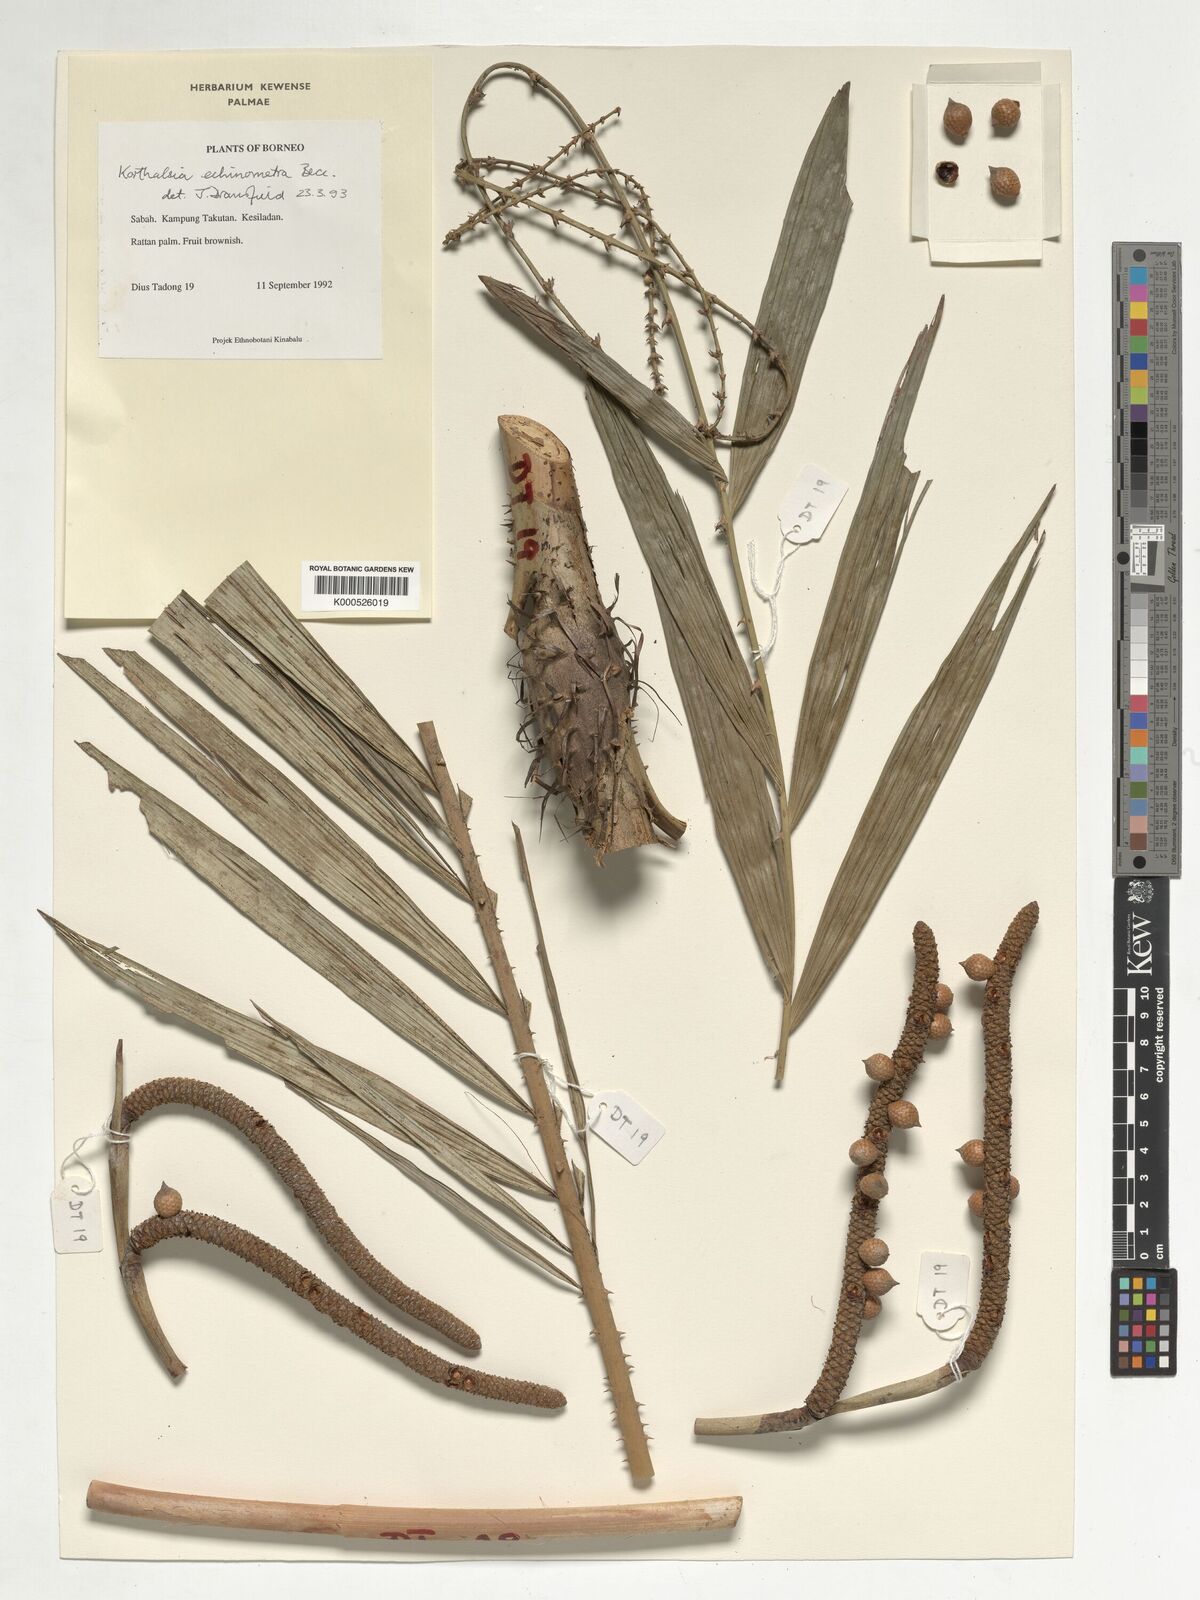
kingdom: Plantae
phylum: Tracheophyta
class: Liliopsida
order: Arecales
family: Arecaceae
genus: Korthalsia
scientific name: Korthalsia echinometra
